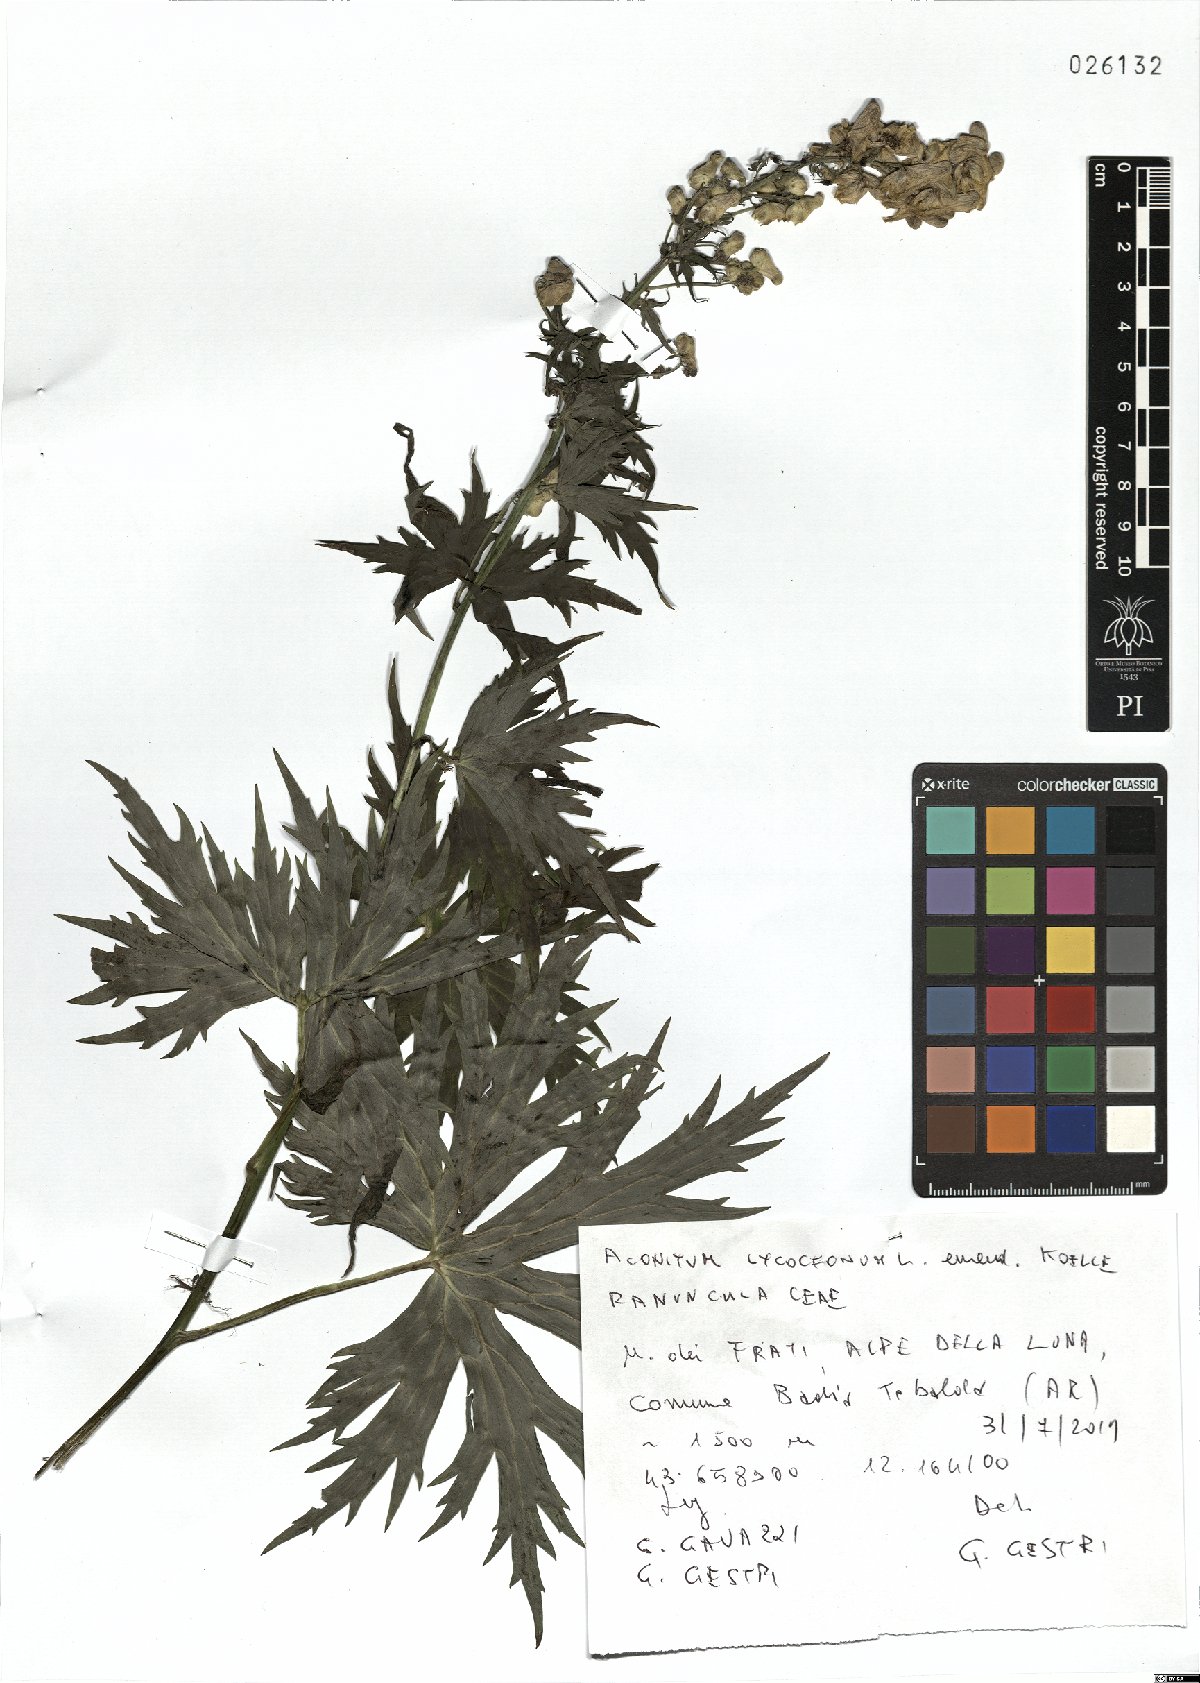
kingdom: Plantae
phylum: Tracheophyta
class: Magnoliopsida
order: Ranunculales
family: Ranunculaceae
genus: Aconitum
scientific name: Aconitum lycoctonum
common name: Wolf's-bane
